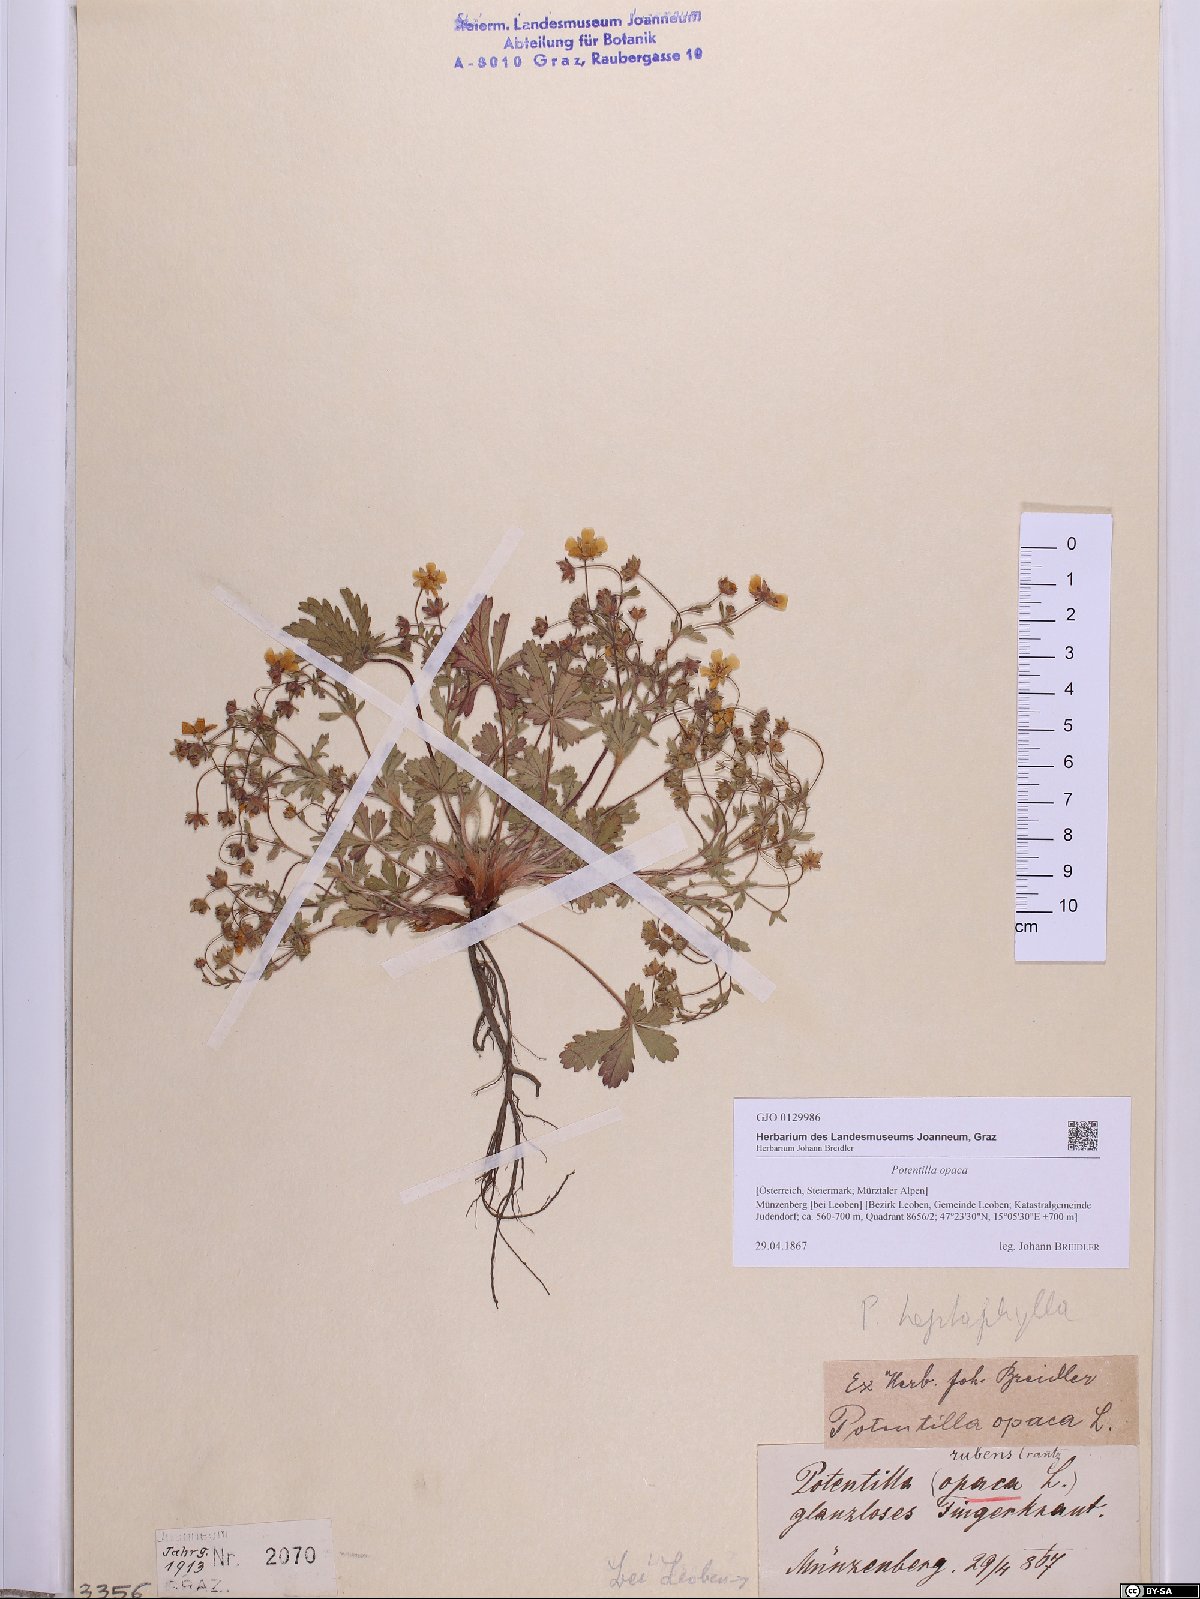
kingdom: Plantae
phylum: Tracheophyta
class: Magnoliopsida
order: Rosales
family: Rosaceae
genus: Potentilla
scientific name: Potentilla
